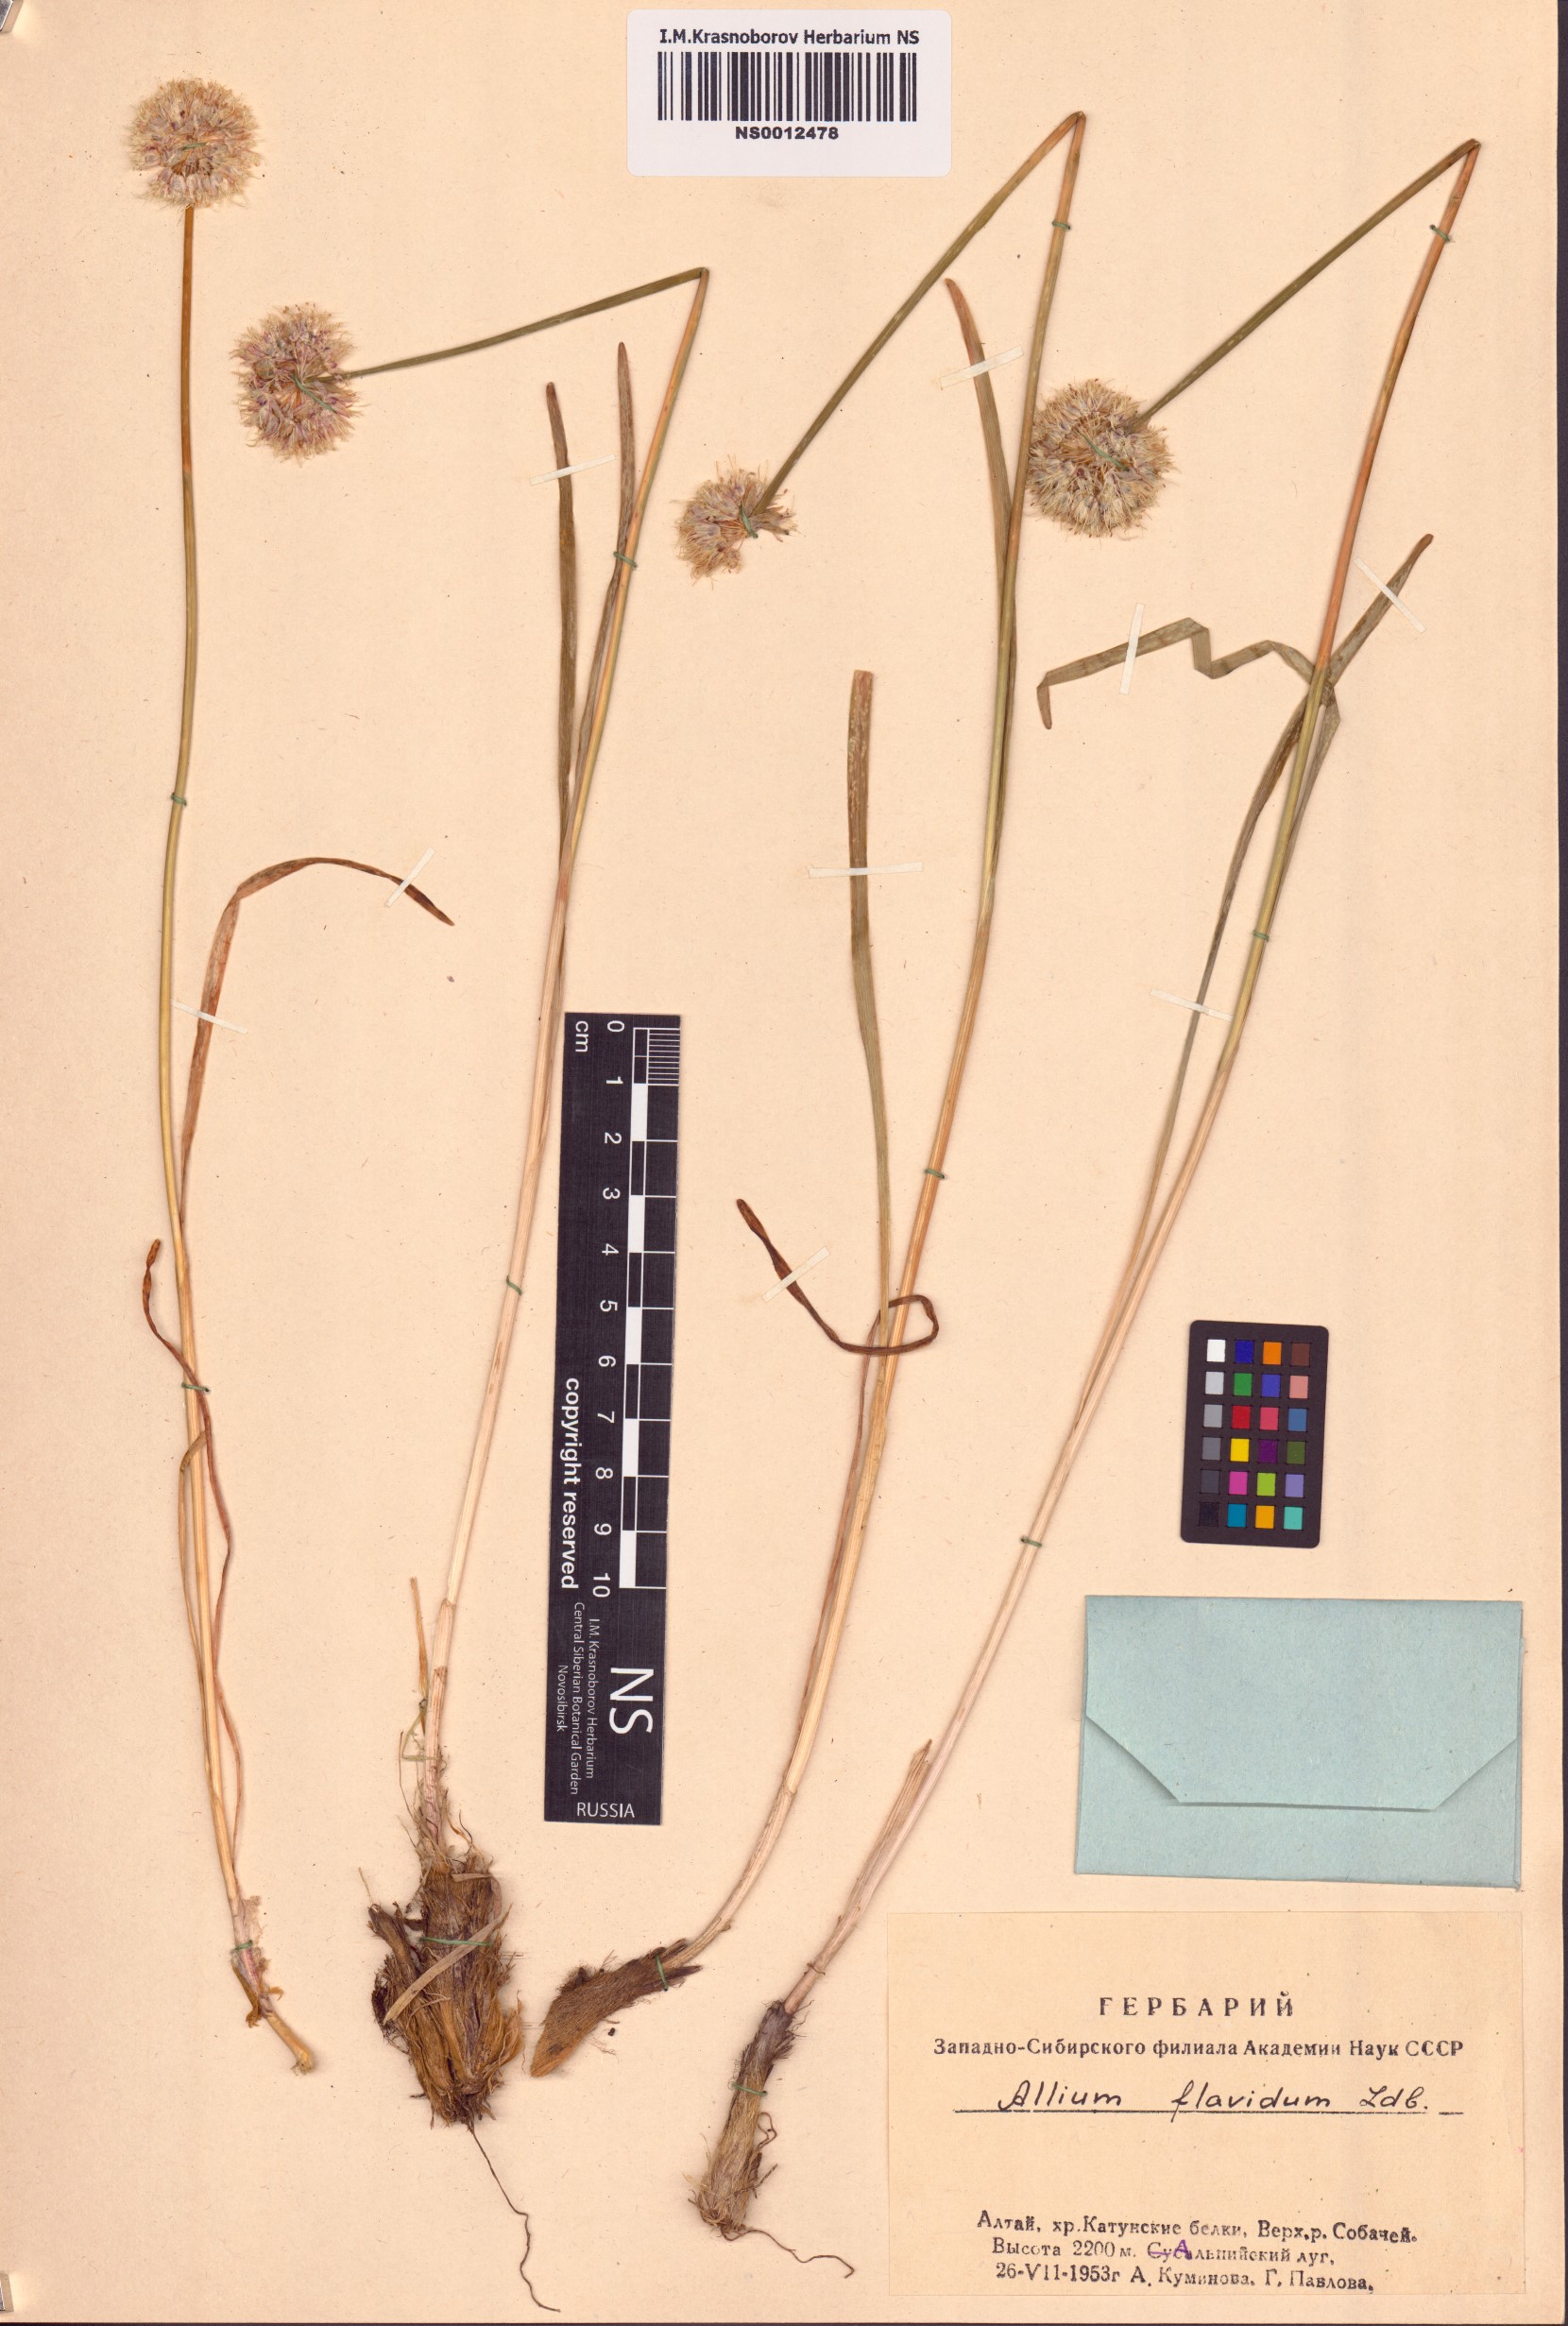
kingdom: Plantae
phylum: Tracheophyta
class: Liliopsida
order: Asparagales
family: Amaryllidaceae
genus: Allium
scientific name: Allium flavidum
